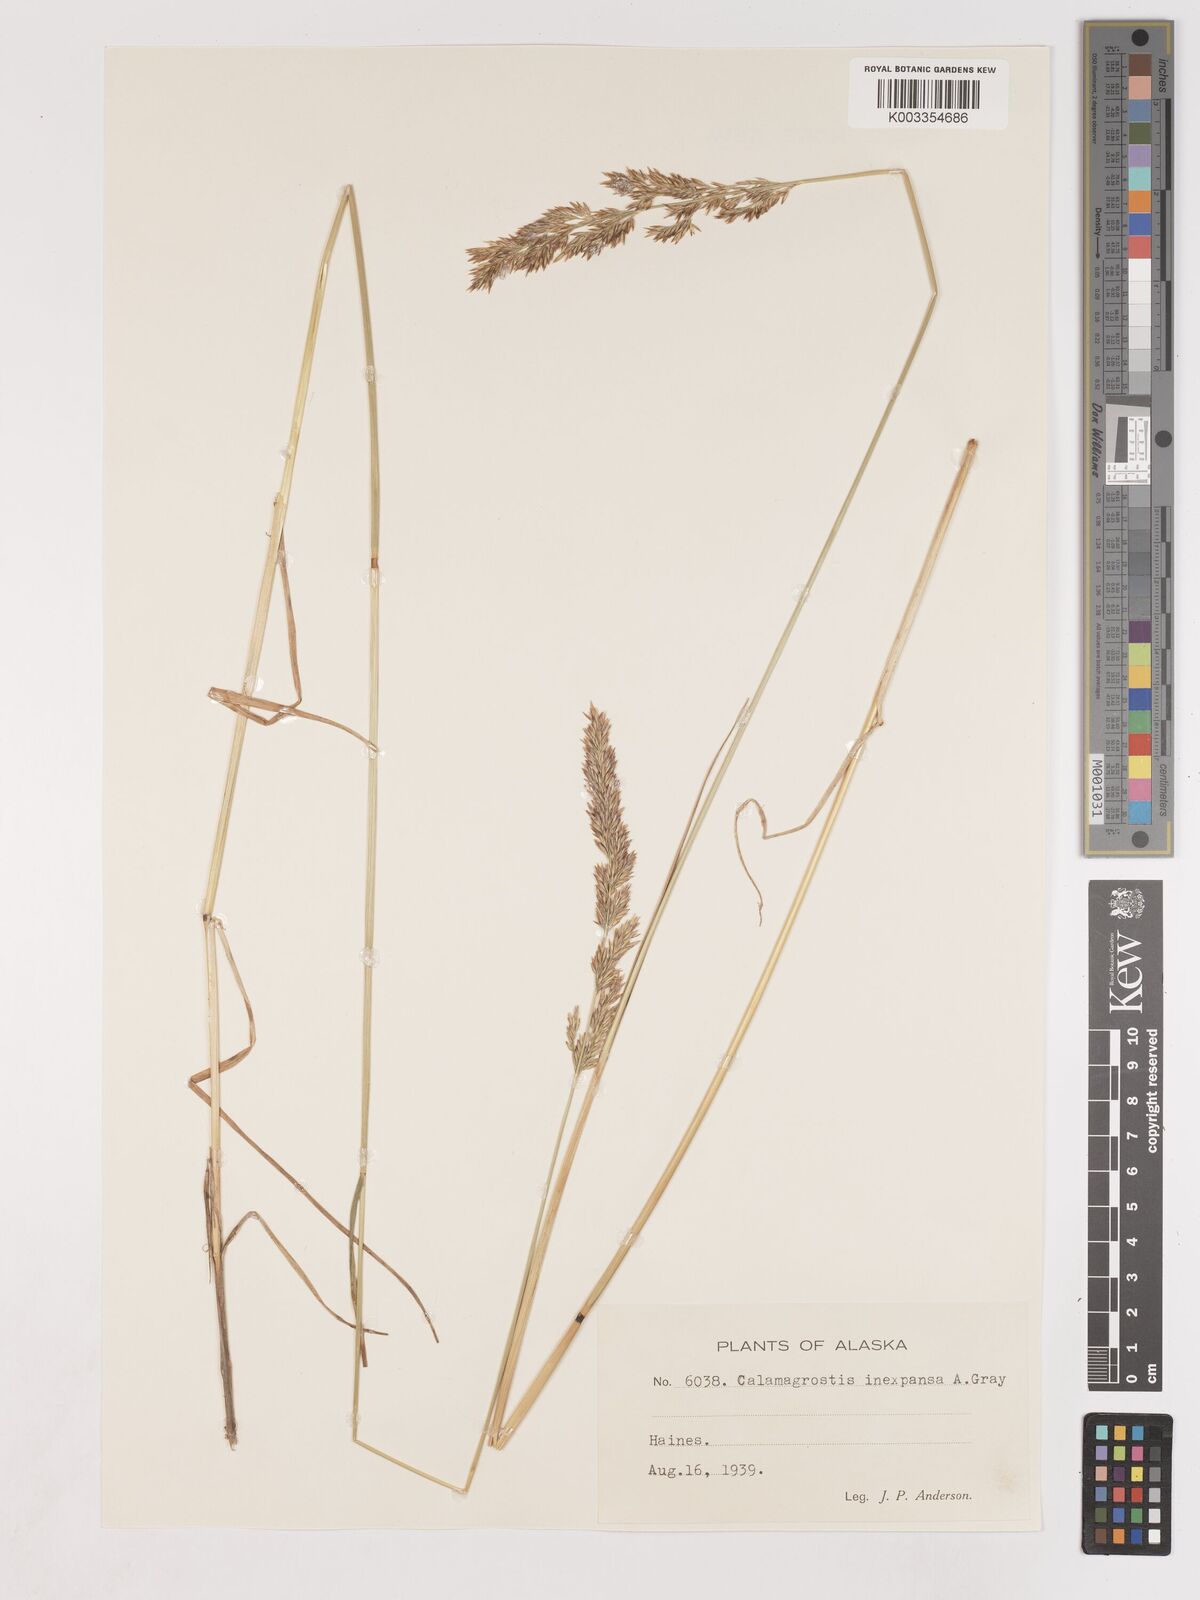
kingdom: Plantae
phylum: Tracheophyta
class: Liliopsida
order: Poales
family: Poaceae
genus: Cinnagrostis
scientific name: Cinnagrostis recta
